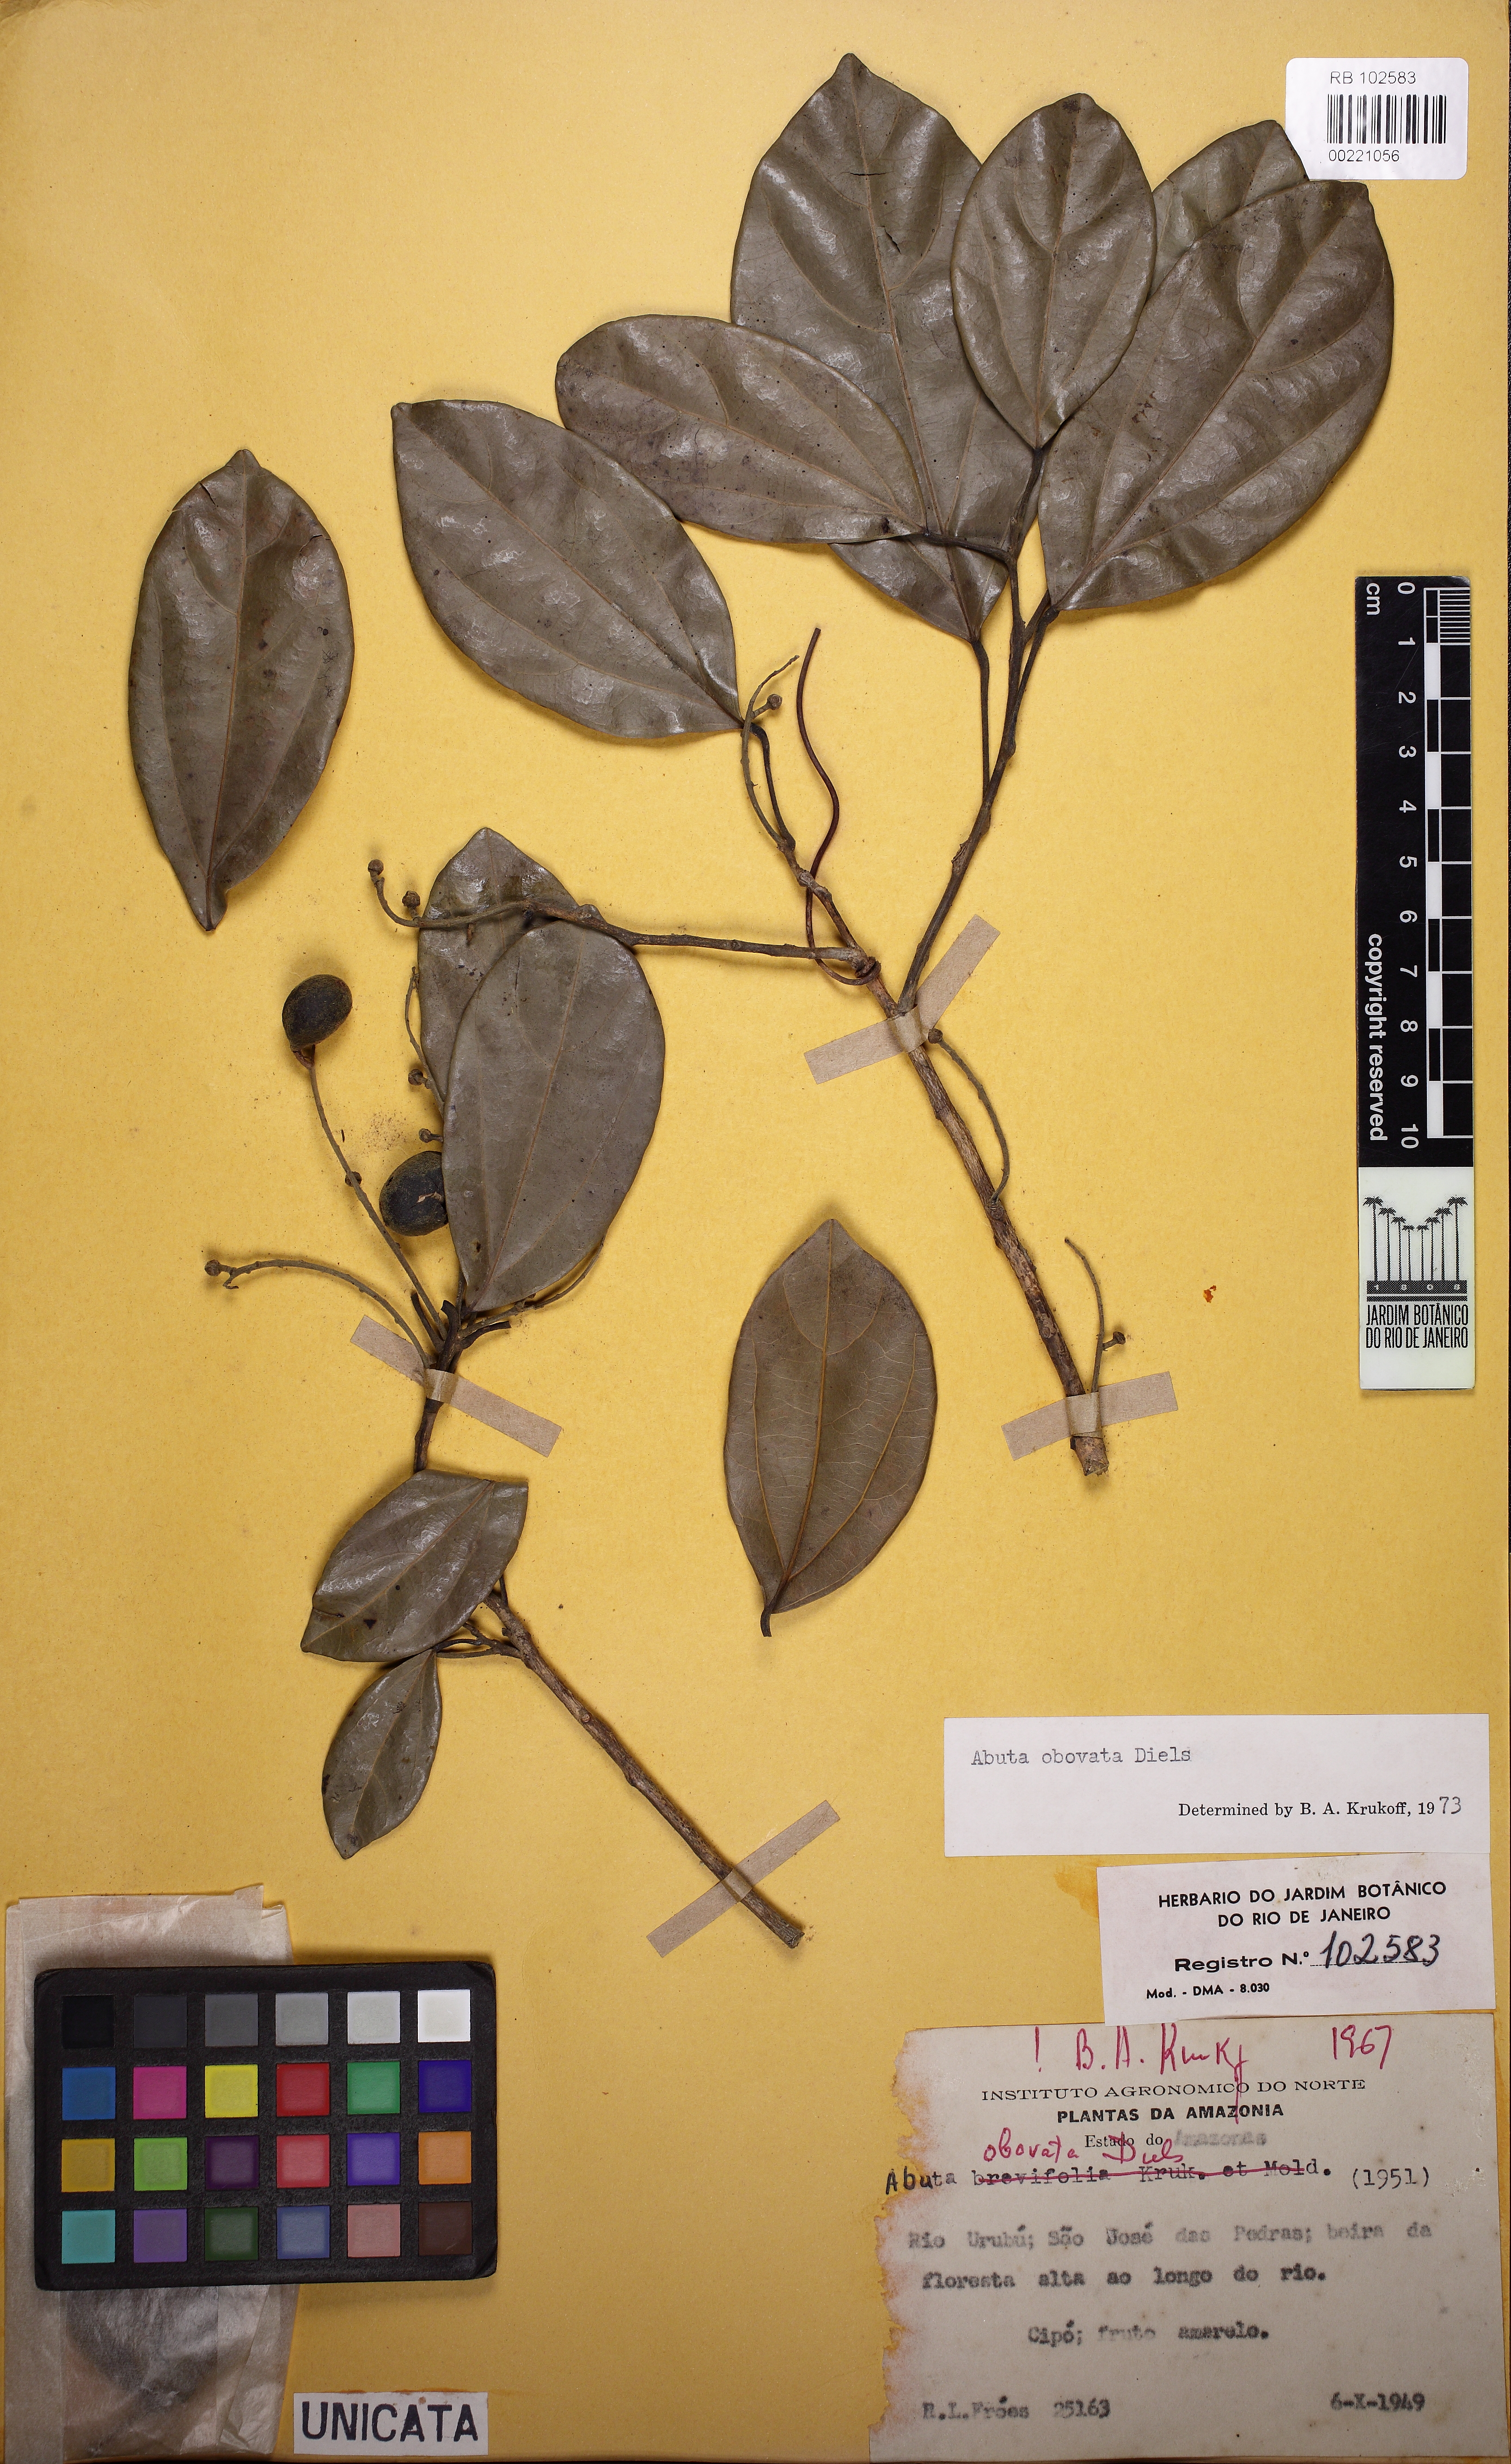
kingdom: Plantae
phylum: Tracheophyta
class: Magnoliopsida
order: Ranunculales
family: Menispermaceae
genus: Abuta
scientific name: Abuta obovata
